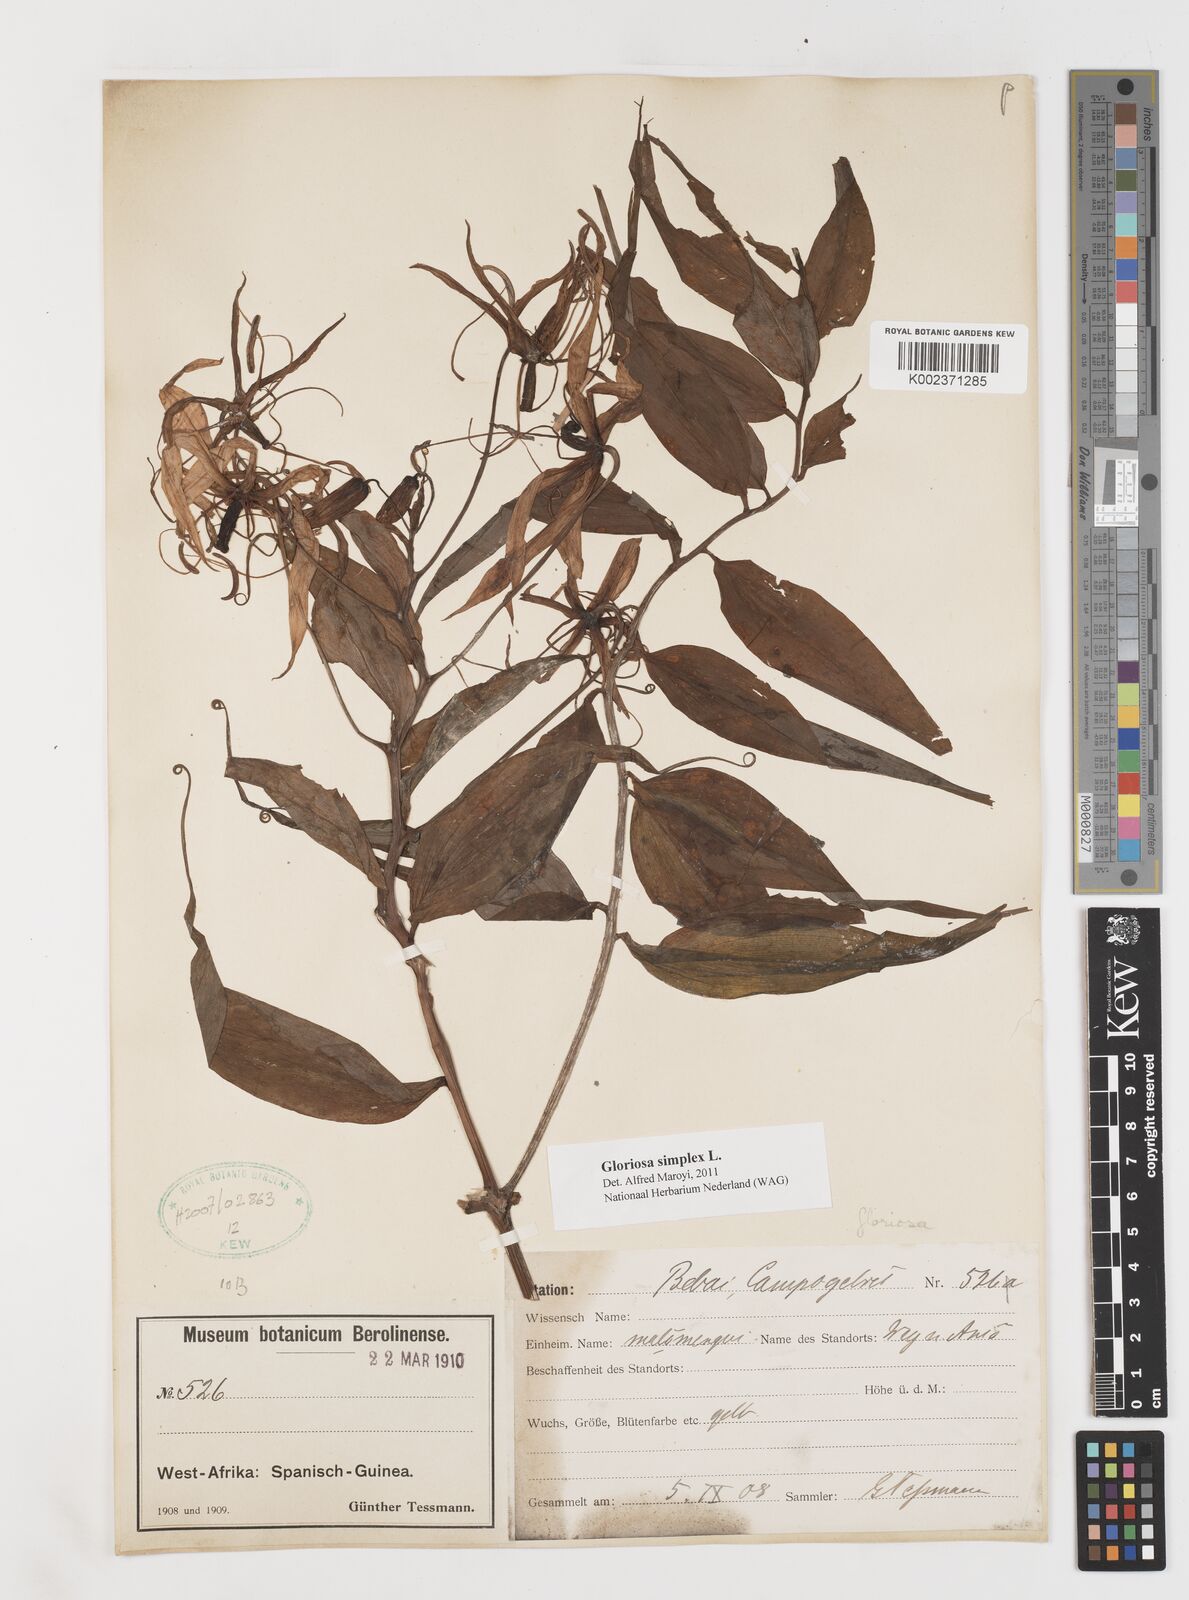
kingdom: Plantae
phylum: Tracheophyta
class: Liliopsida
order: Liliales
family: Colchicaceae
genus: Gloriosa
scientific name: Gloriosa simplex
